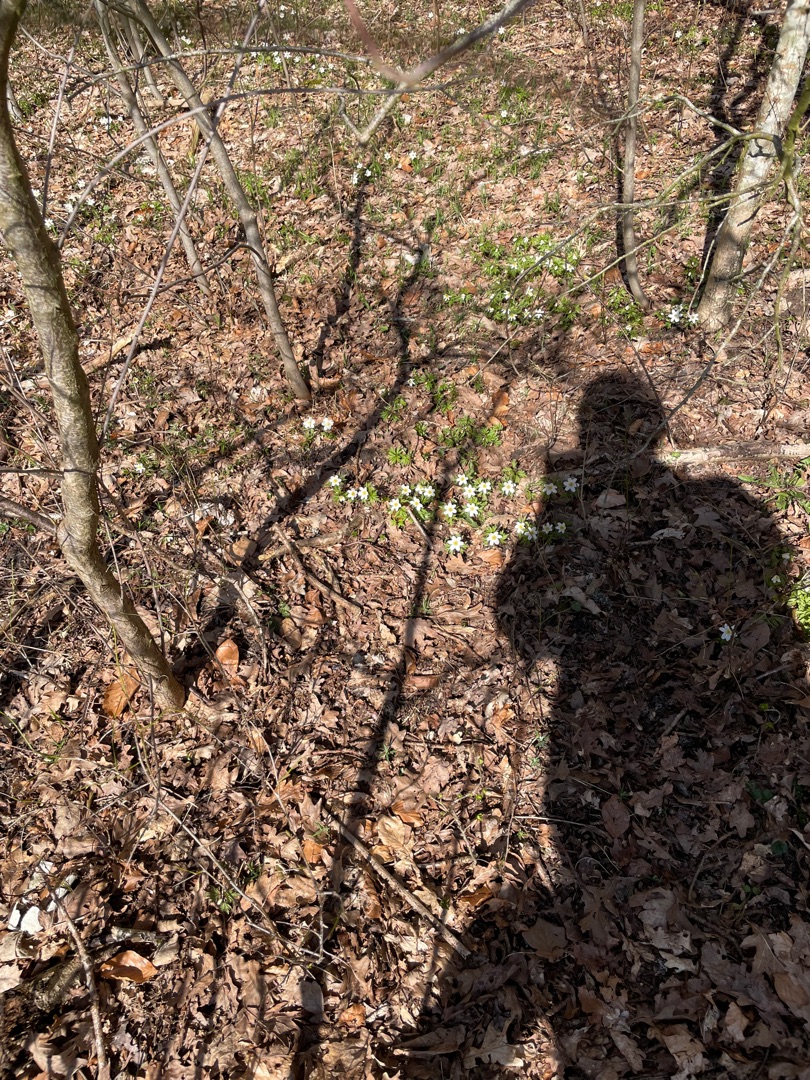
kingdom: Plantae
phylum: Tracheophyta
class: Magnoliopsida
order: Ranunculales
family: Ranunculaceae
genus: Anemone
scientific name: Anemone nemorosa
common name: Hvid anemone
